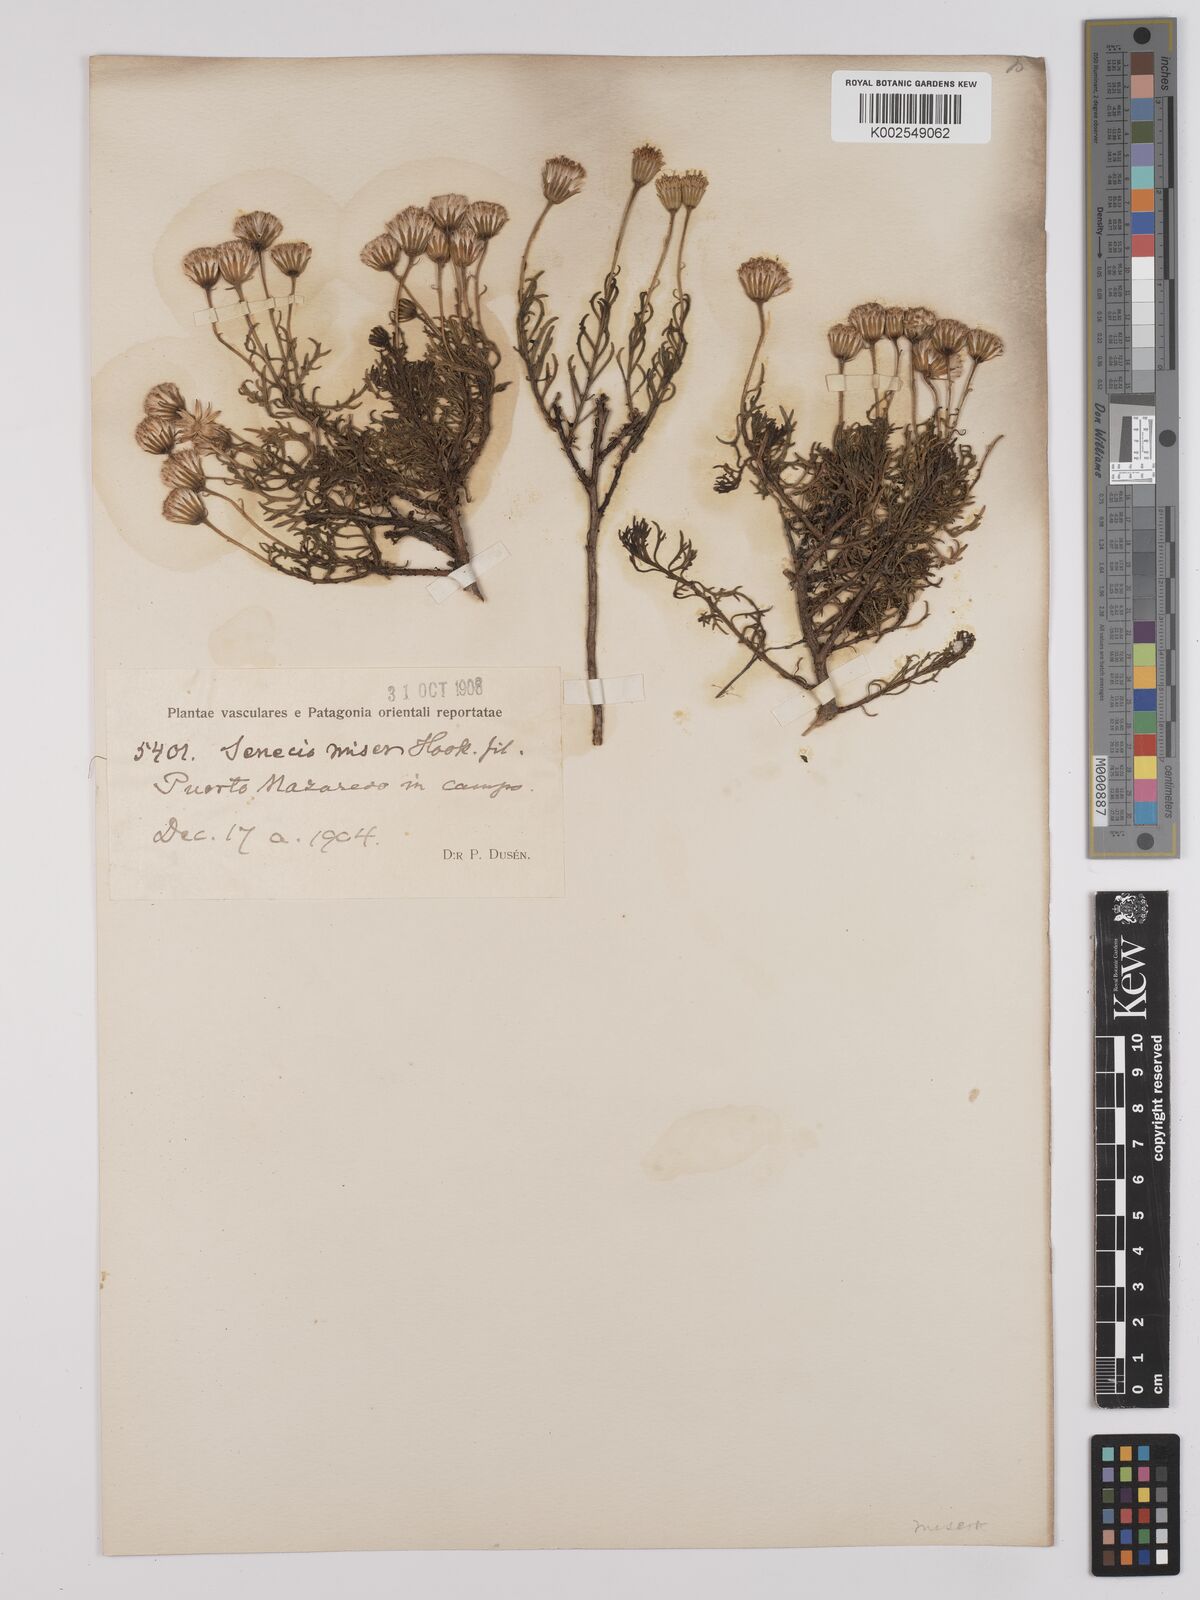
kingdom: Plantae
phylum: Tracheophyta
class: Magnoliopsida
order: Asterales
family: Asteraceae
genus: Senecio
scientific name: Senecio miser
